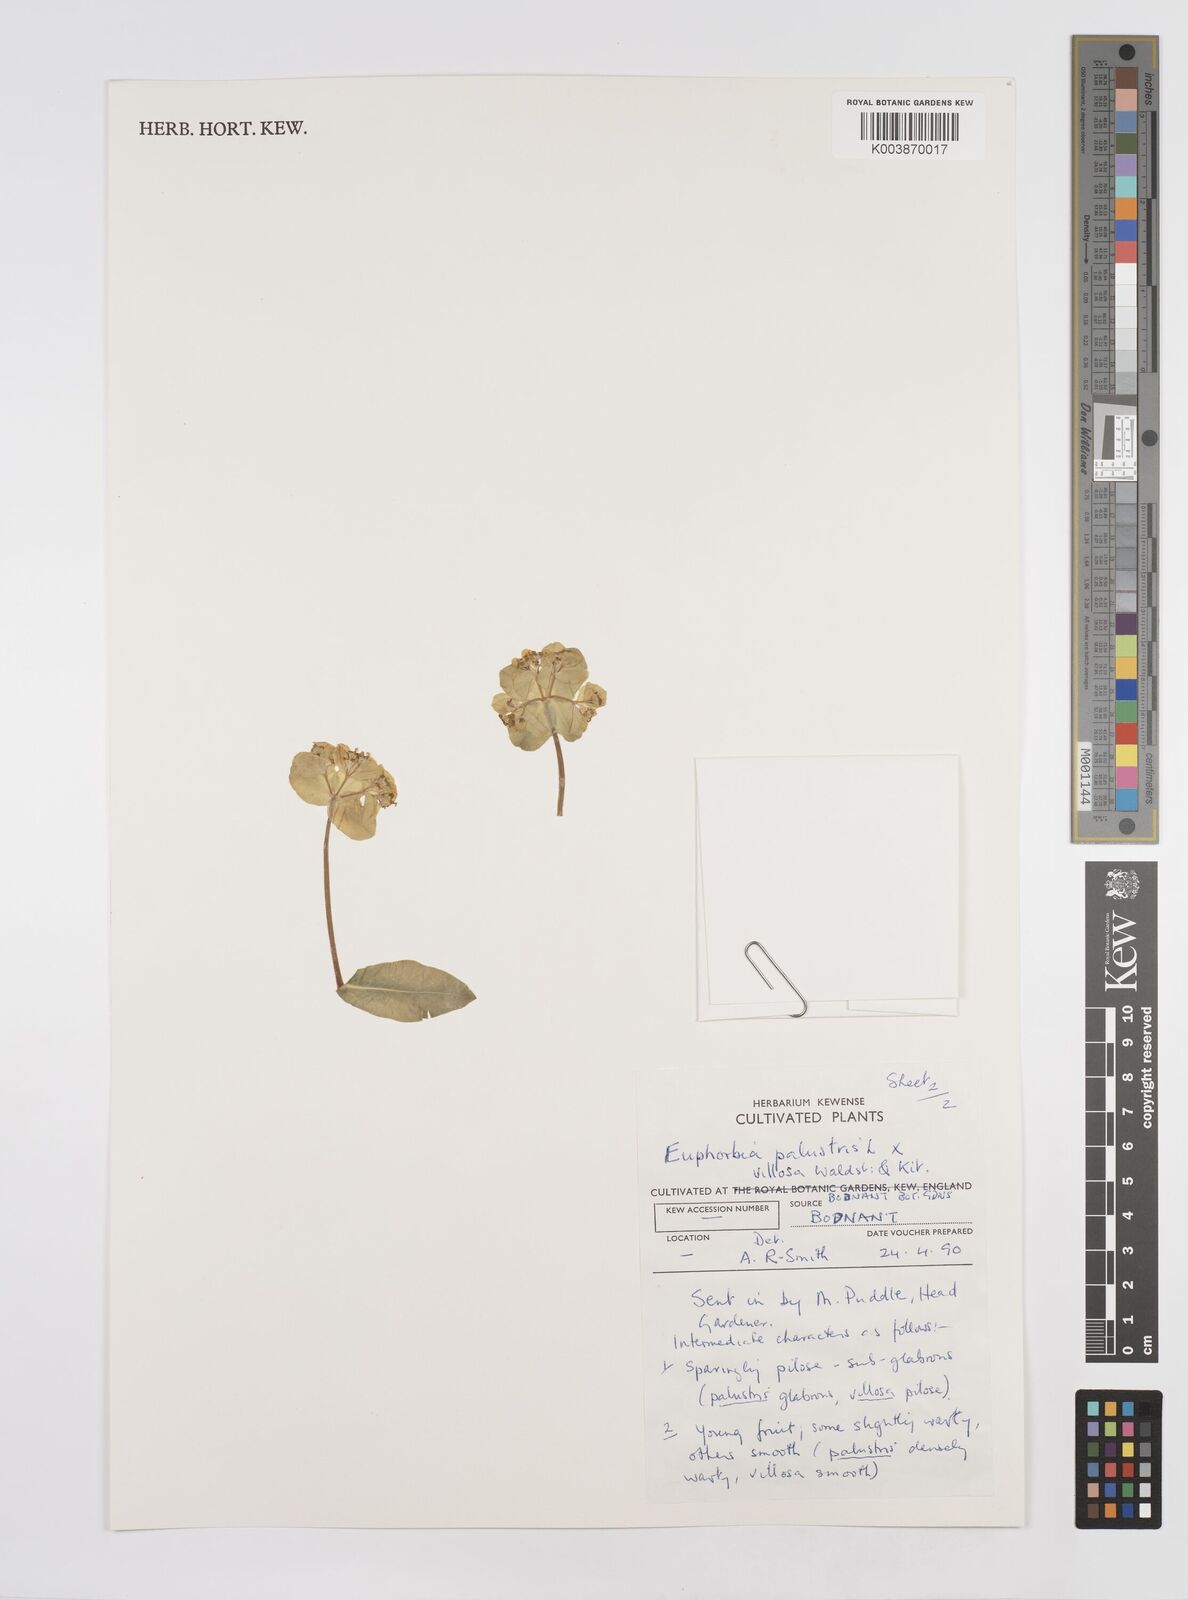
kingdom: Plantae
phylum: Tracheophyta
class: Magnoliopsida
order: Malpighiales
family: Euphorbiaceae
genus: Euphorbia
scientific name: Euphorbia palustris
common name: Marsh spurge
